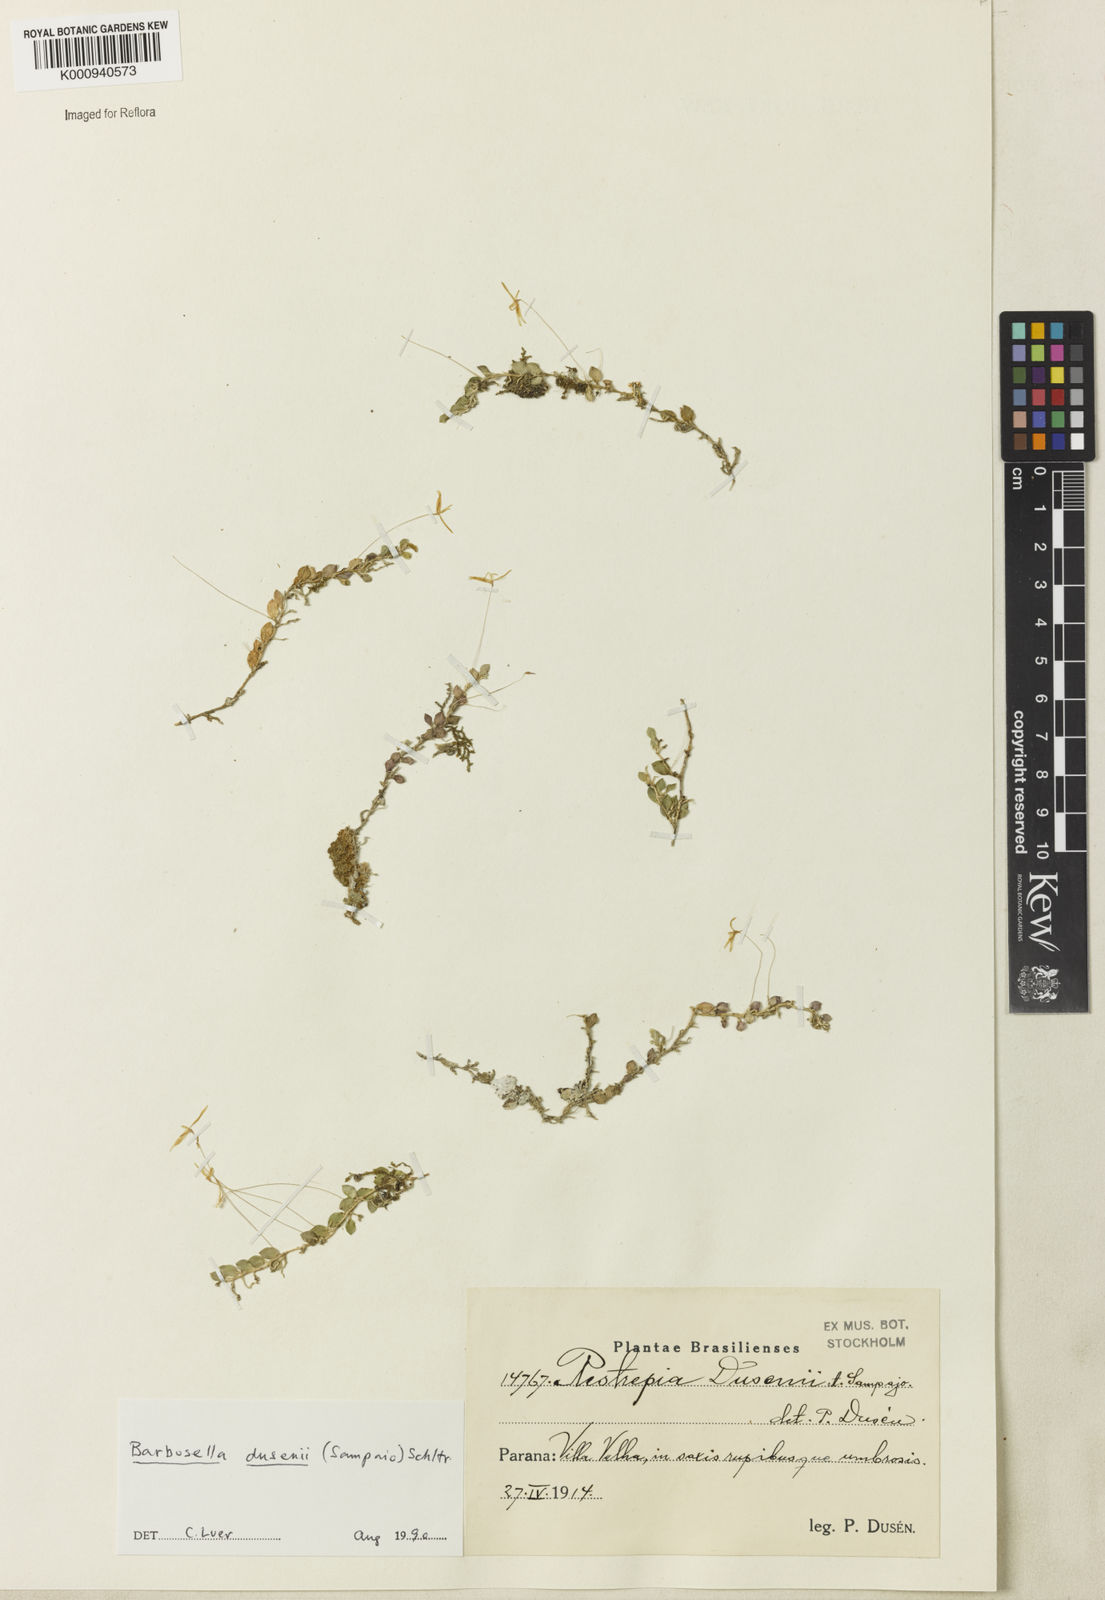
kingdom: Plantae
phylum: Tracheophyta
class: Liliopsida
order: Asparagales
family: Orchidaceae
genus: Barbosella
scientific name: Barbosella dusenii
